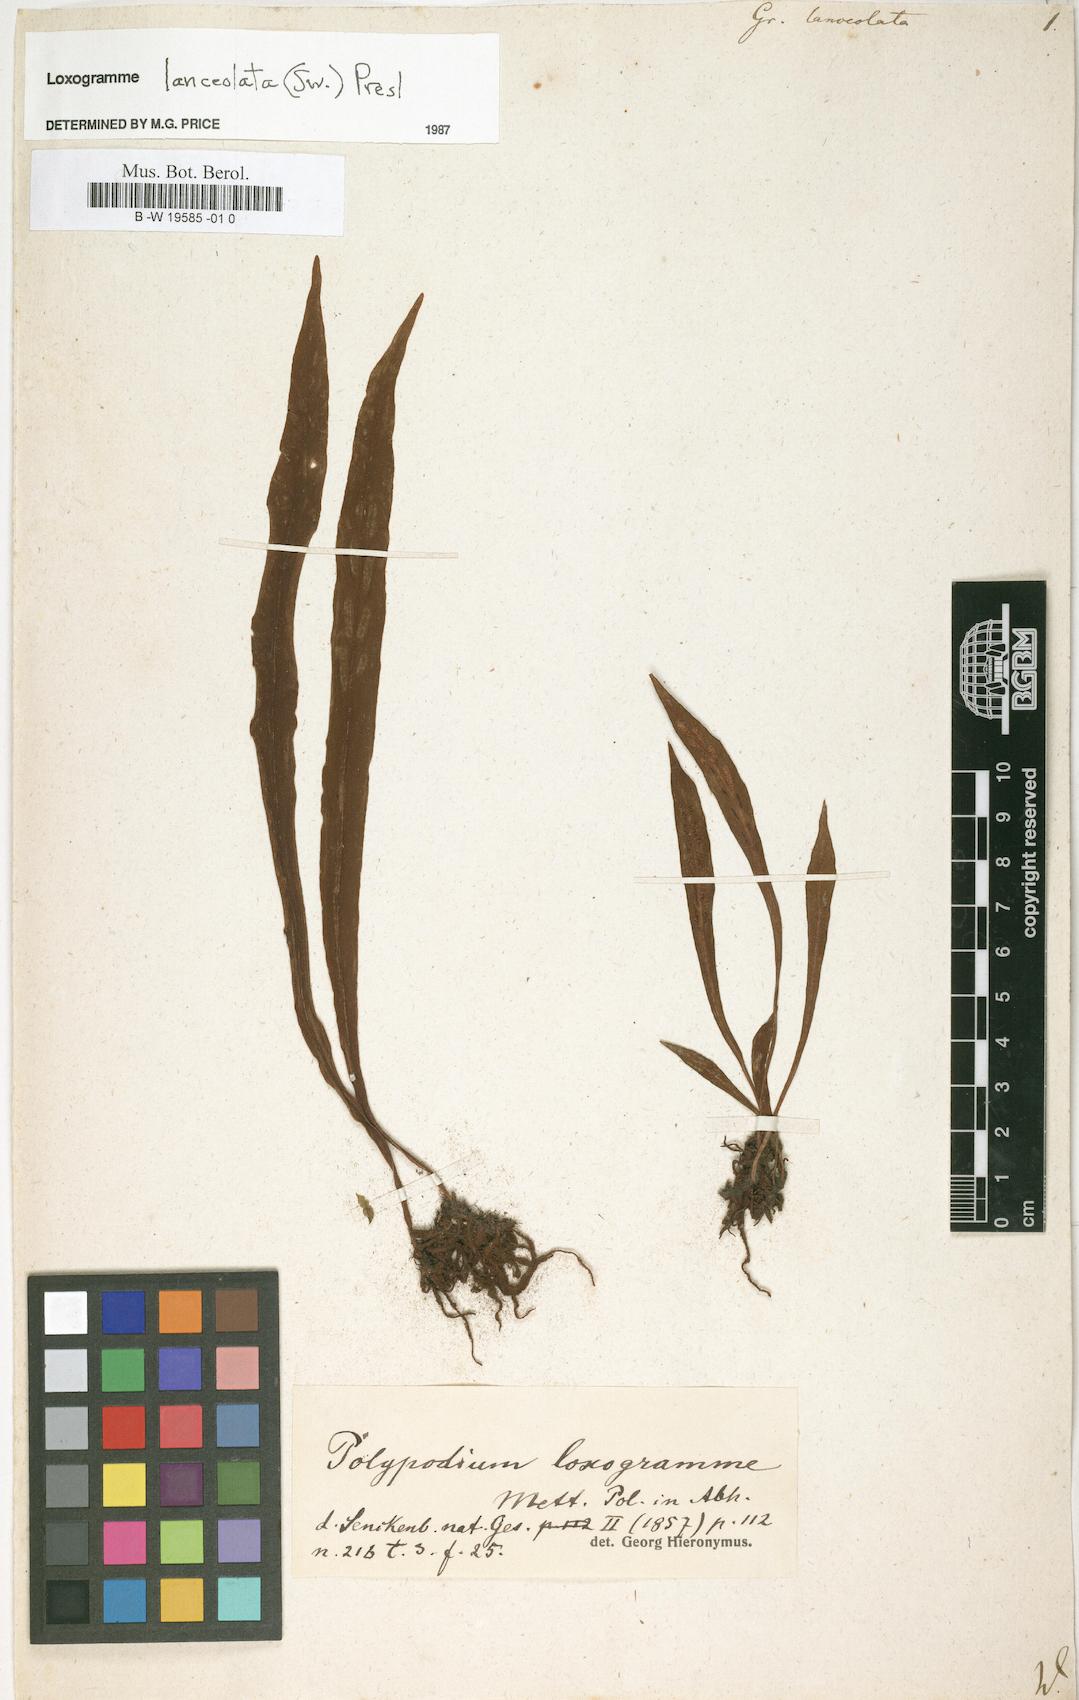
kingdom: Plantae
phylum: Tracheophyta
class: Polypodiopsida
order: Polypodiales
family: Polypodiaceae
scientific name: Polypodiaceae
